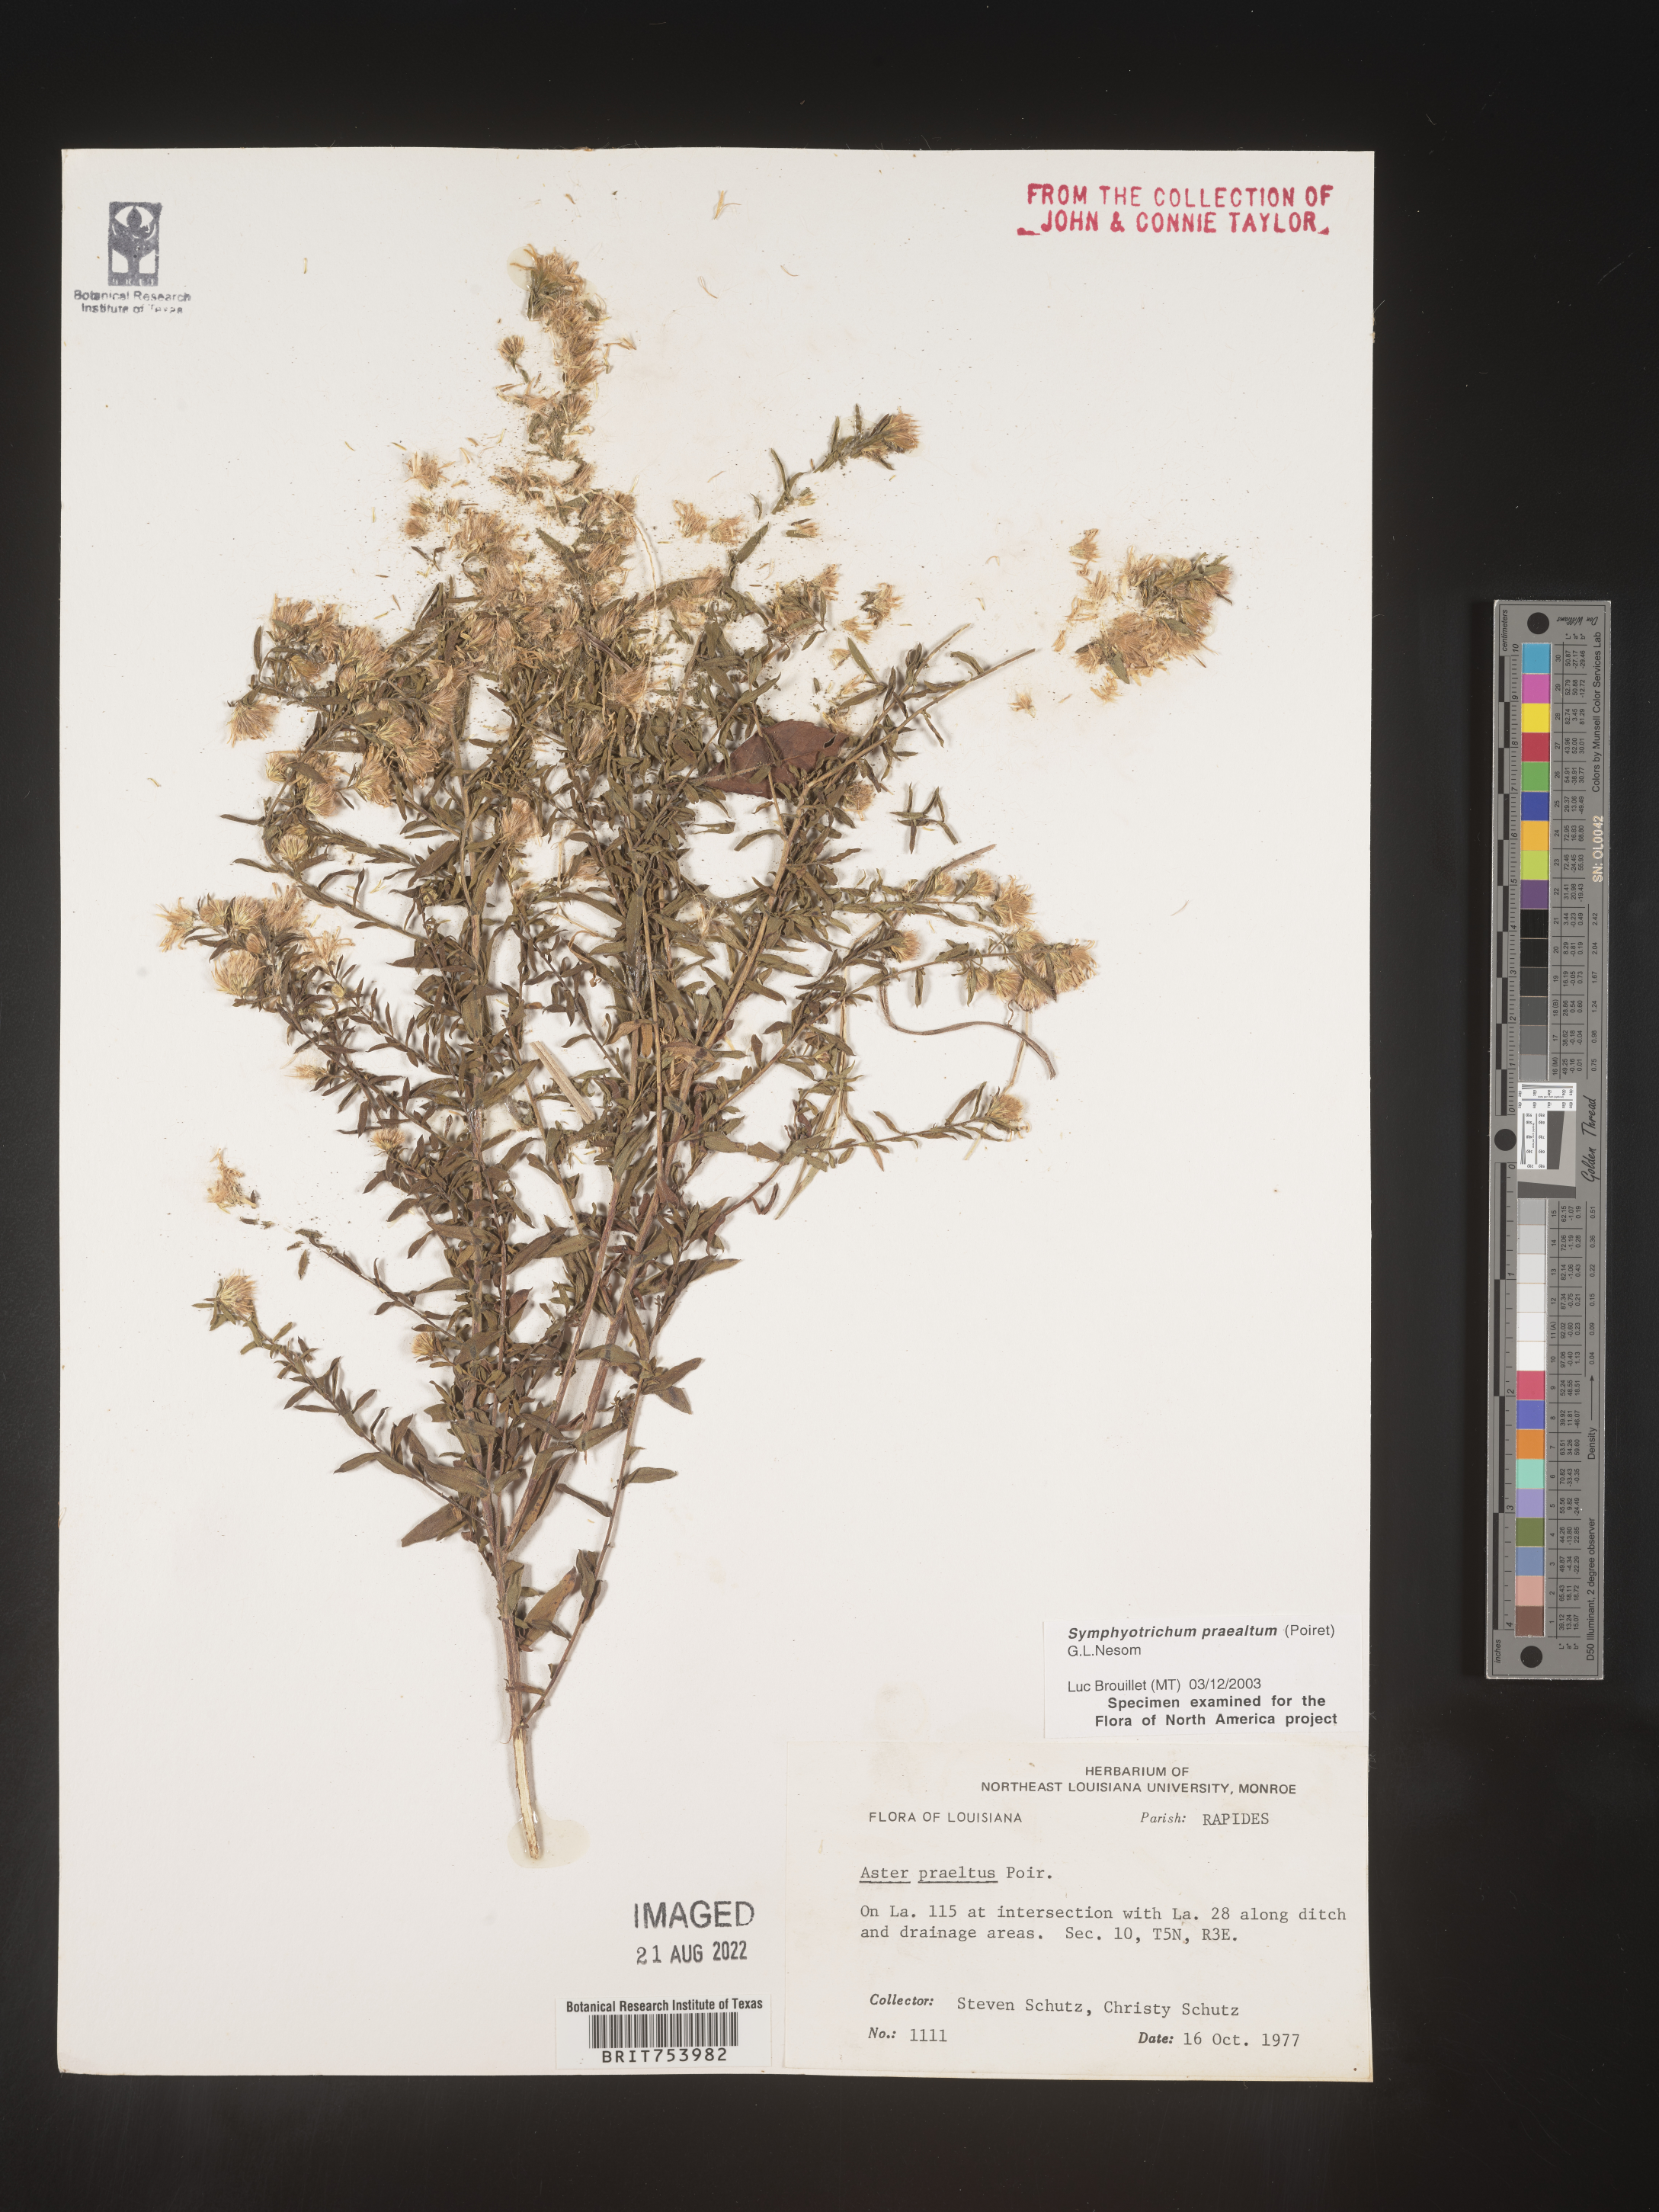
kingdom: Plantae
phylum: Tracheophyta
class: Magnoliopsida
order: Asterales
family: Asteraceae
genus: Symphyotrichum
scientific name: Symphyotrichum praealtum
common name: Willow aster
